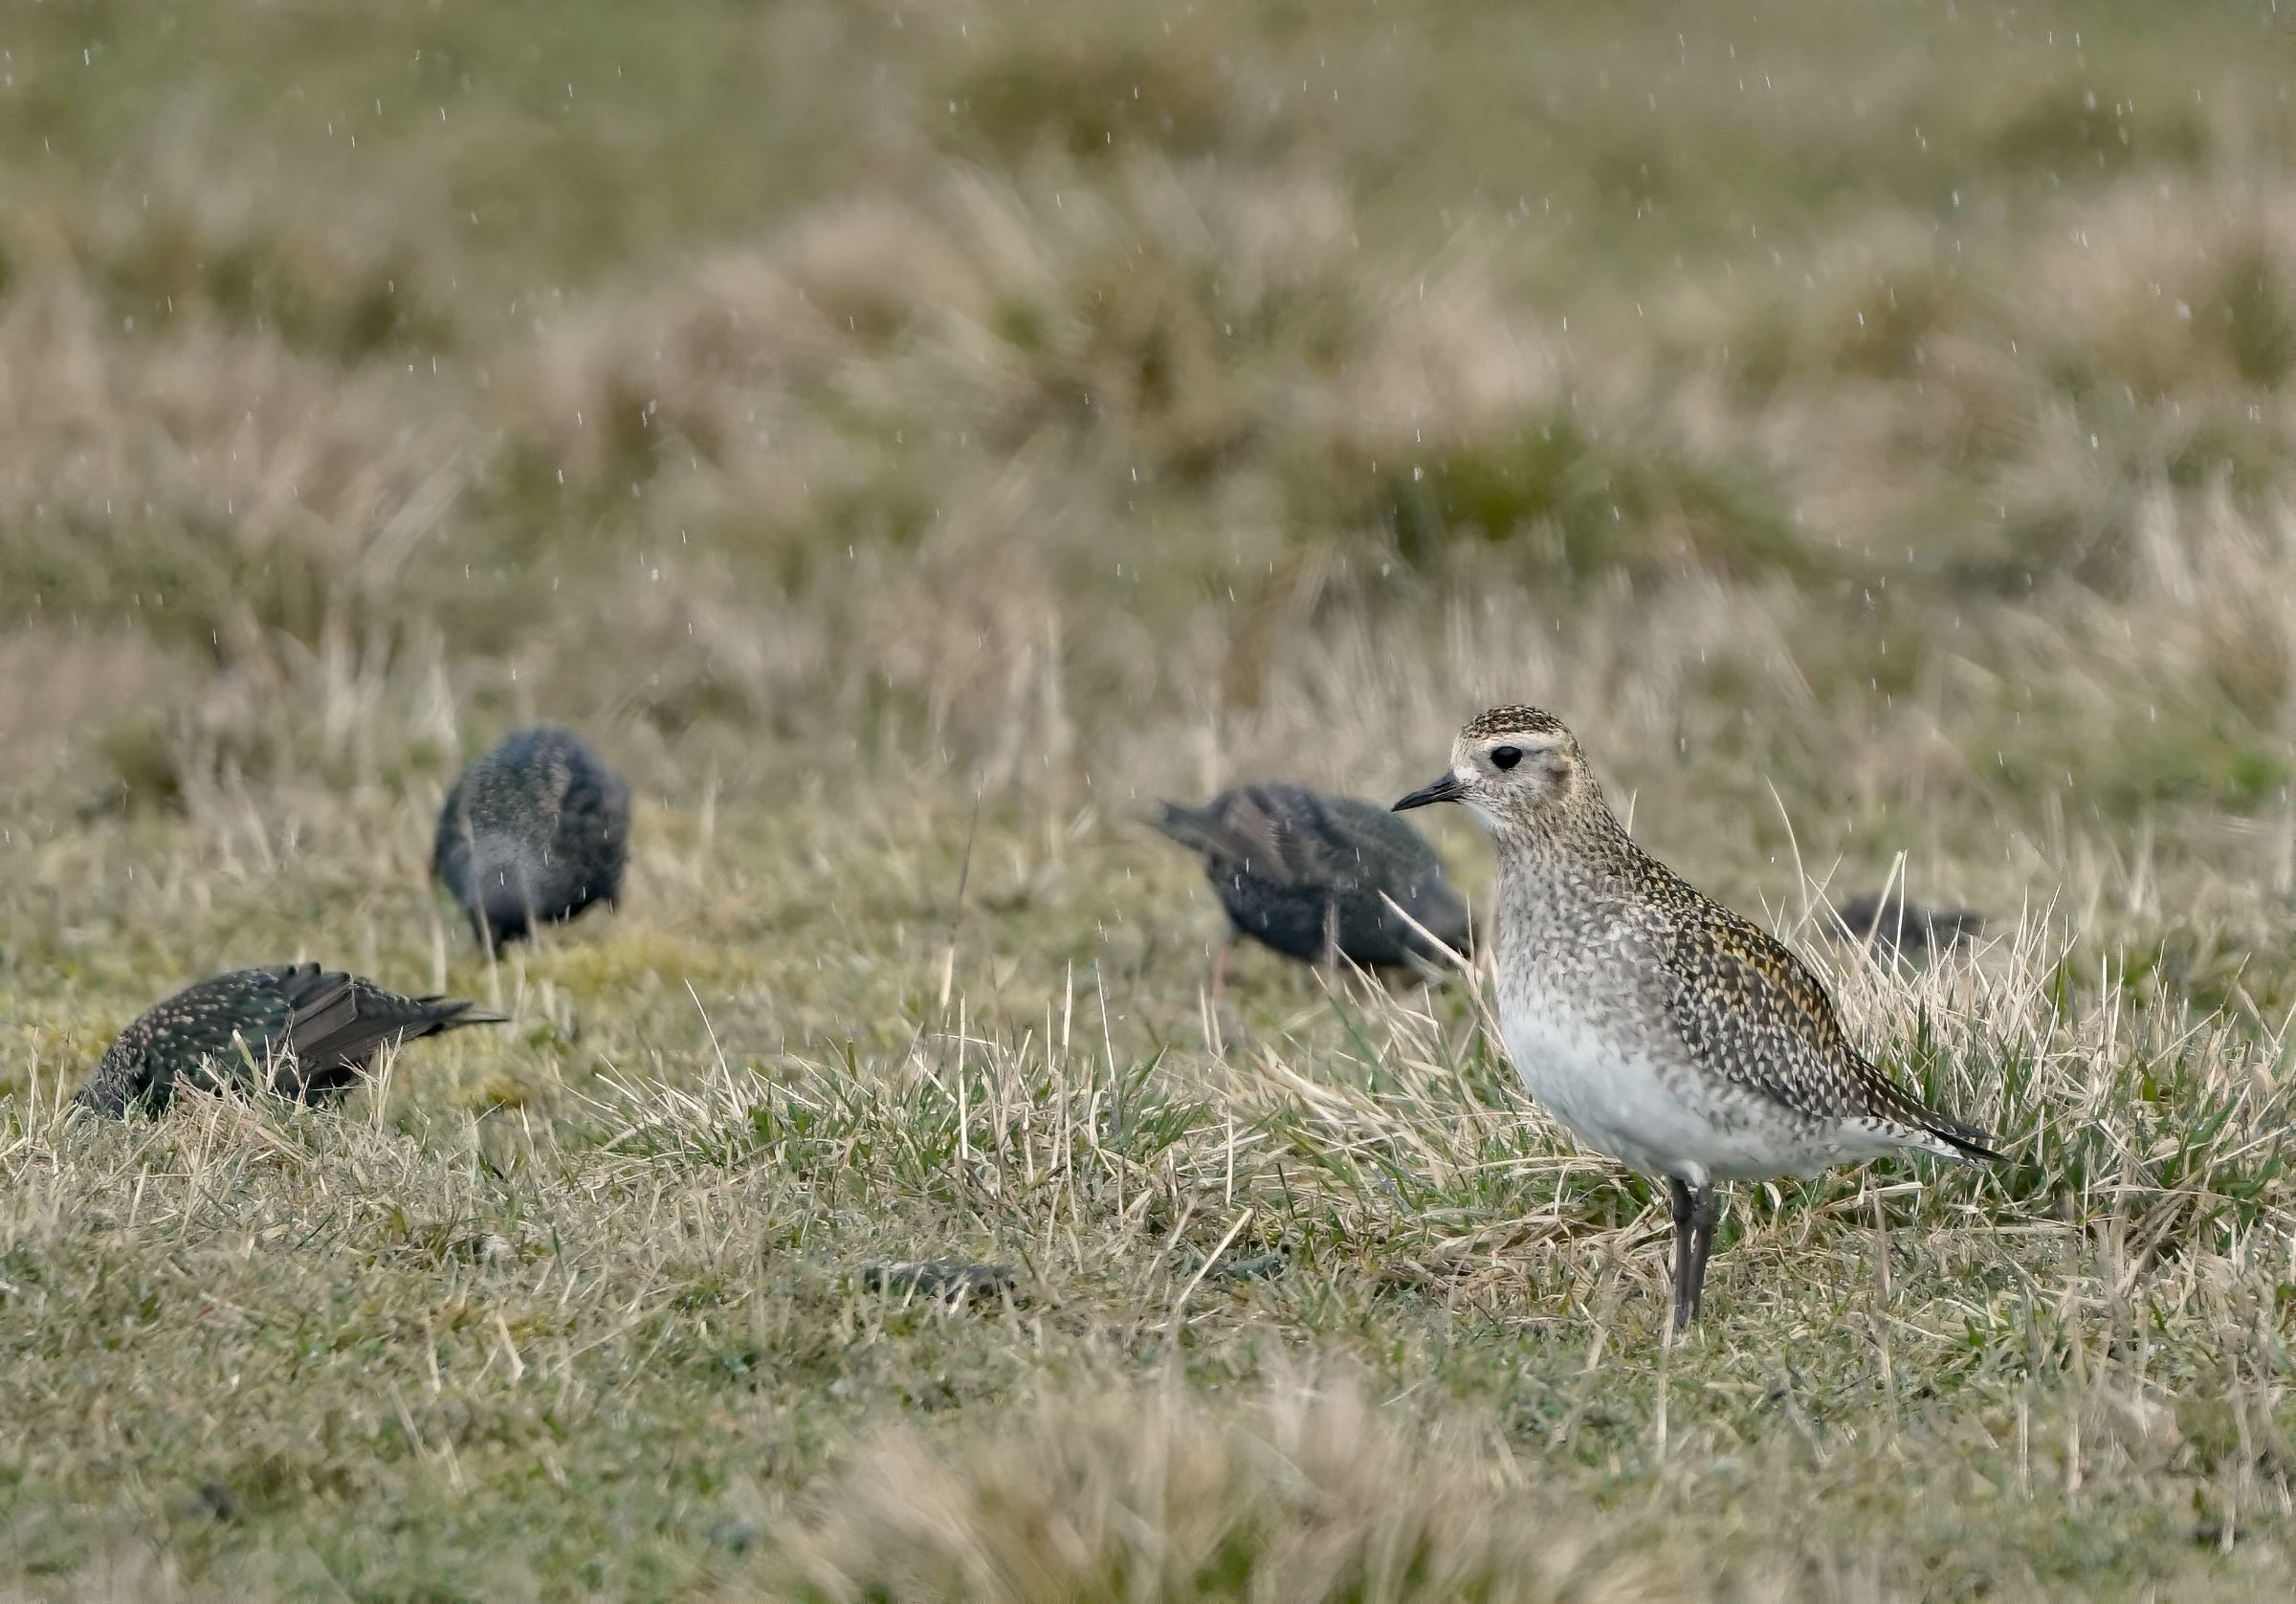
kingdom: Animalia
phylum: Chordata
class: Aves
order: Charadriiformes
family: Charadriidae
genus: Pluvialis
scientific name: Pluvialis apricaria
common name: Hjejle
